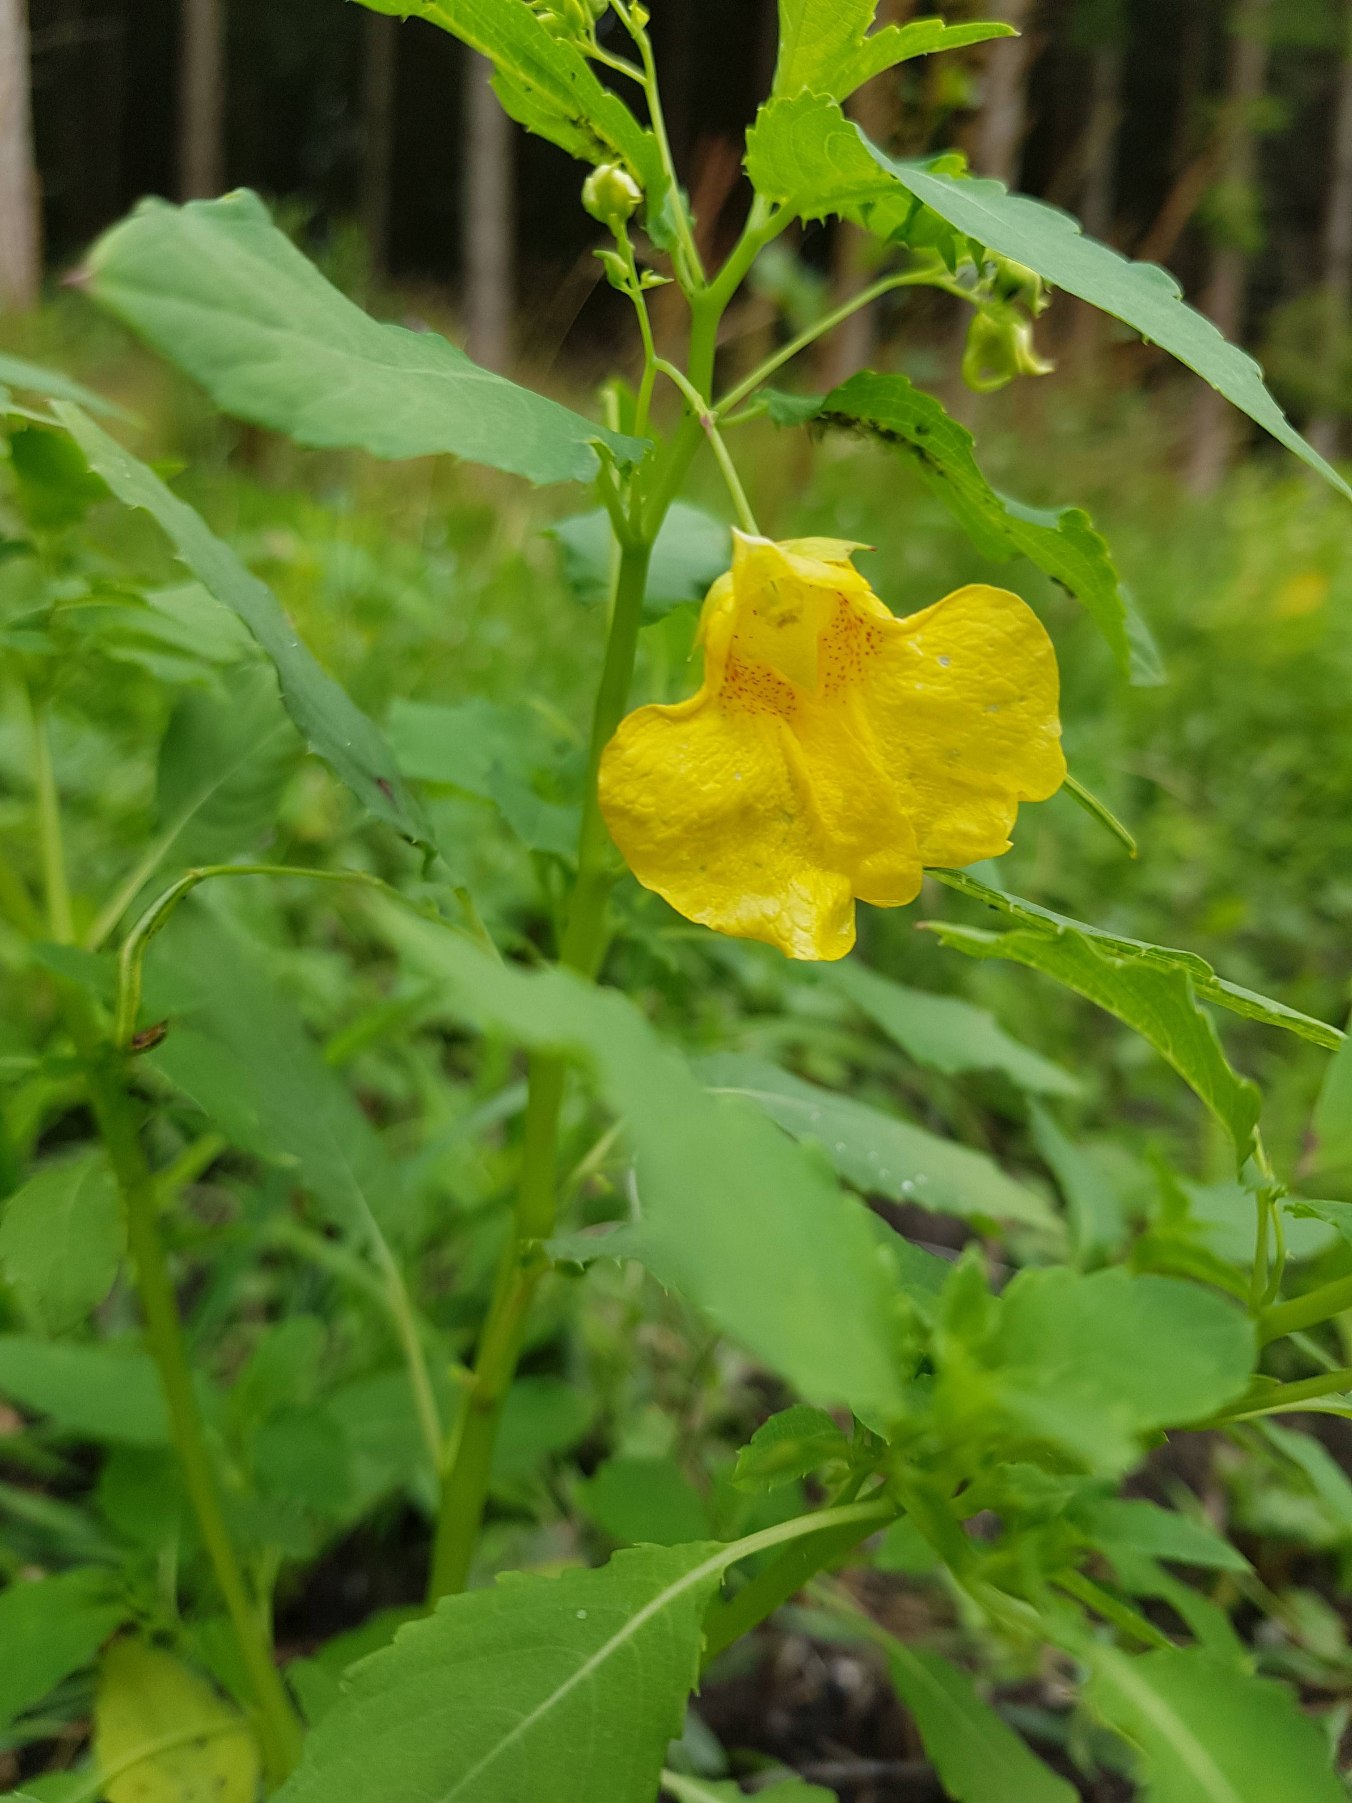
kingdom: Plantae
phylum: Tracheophyta
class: Magnoliopsida
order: Ericales
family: Balsaminaceae
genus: Impatiens
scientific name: Impatiens noli-tangere
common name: Spring-balsamin
